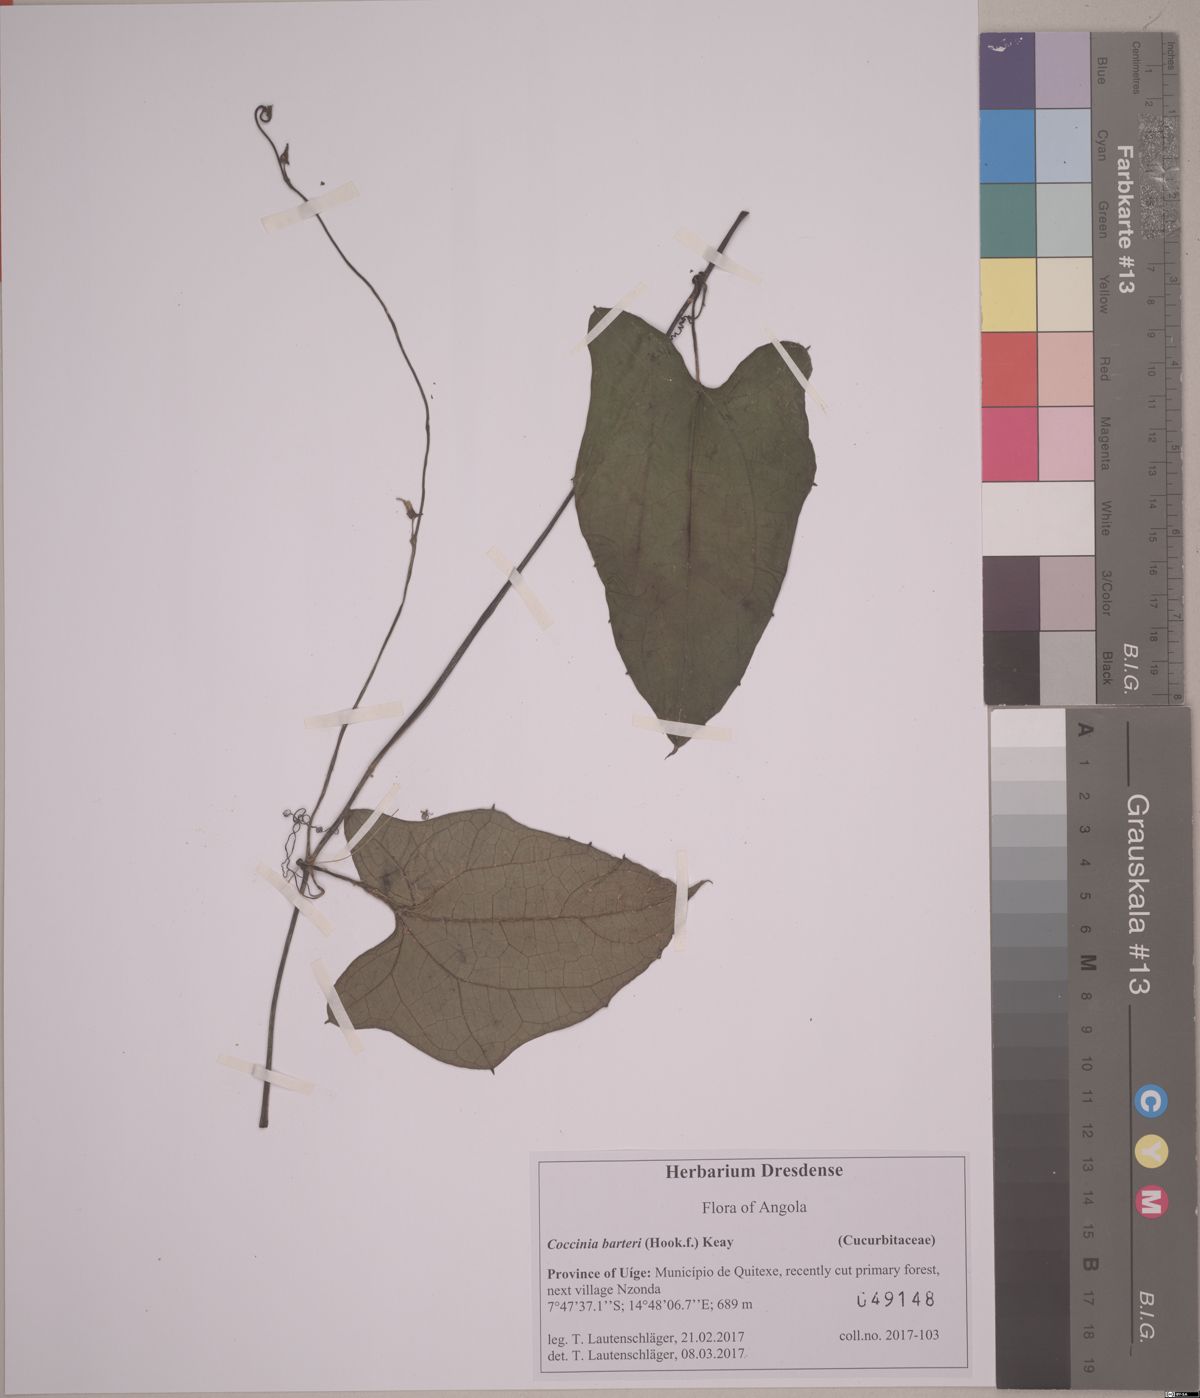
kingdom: Plantae
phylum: Tracheophyta
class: Magnoliopsida
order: Cucurbitales
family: Cucurbitaceae
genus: Coccinia
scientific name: Coccinia barteri
